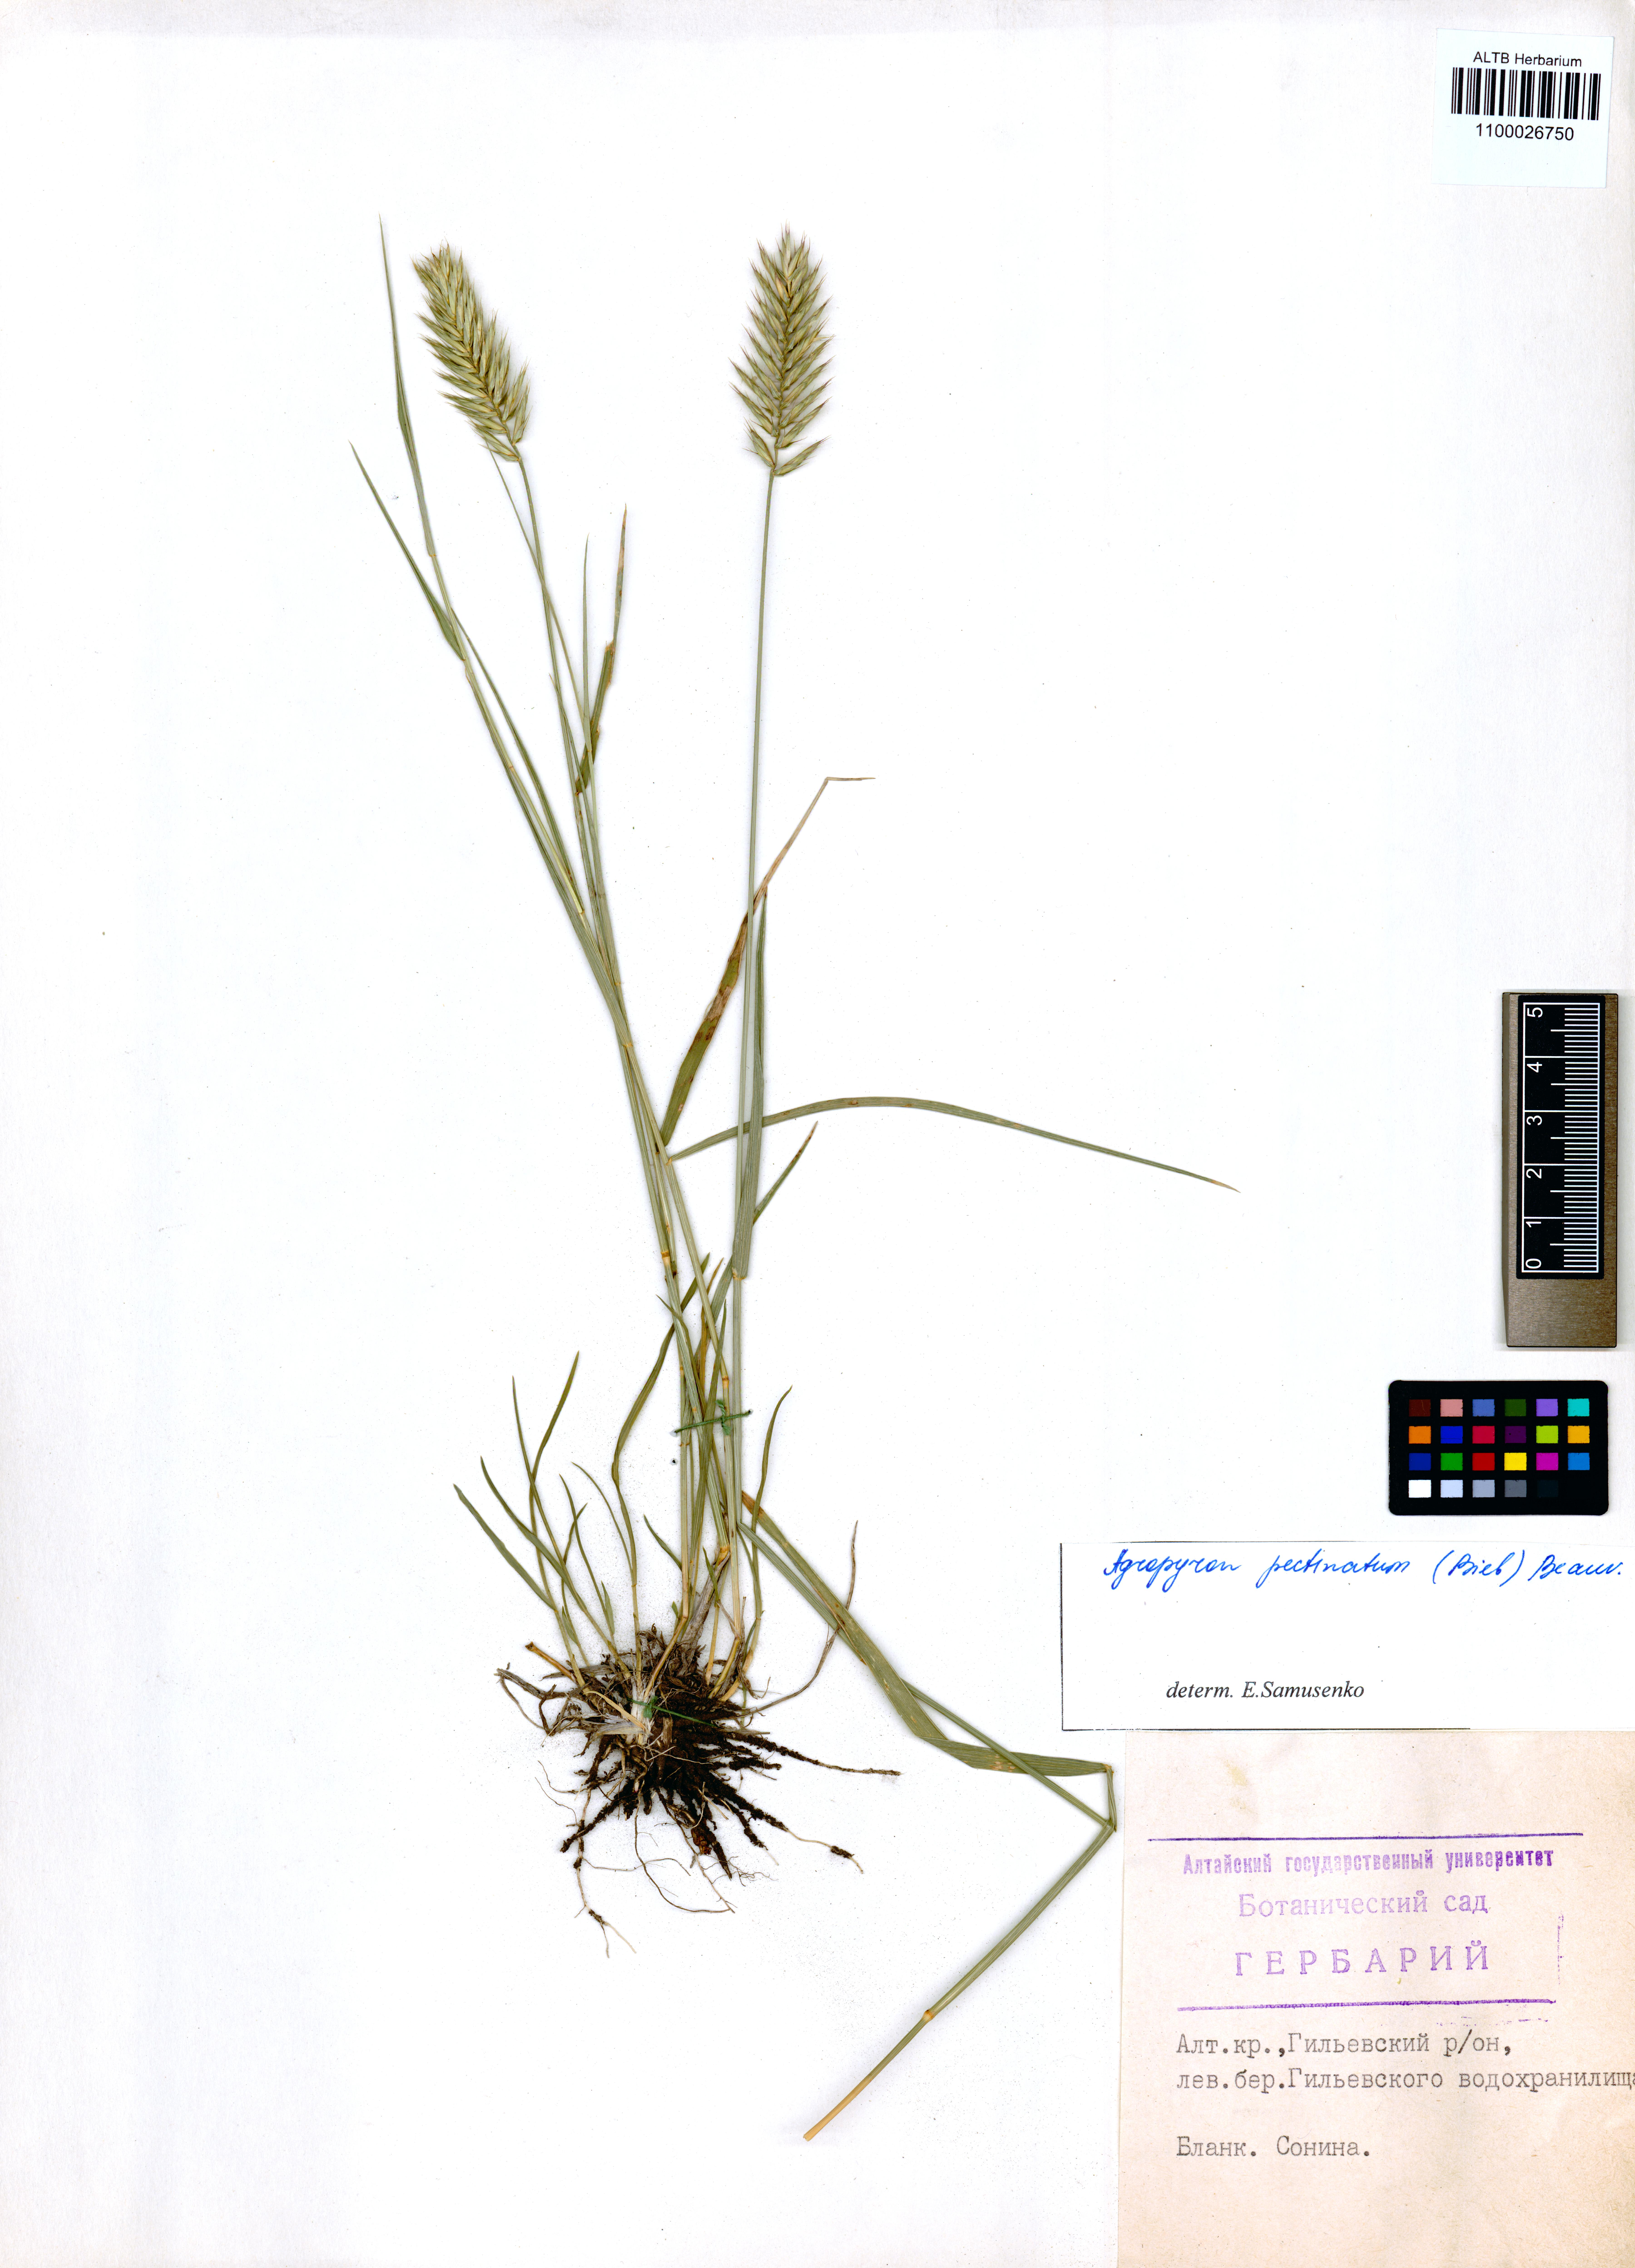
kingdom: Plantae
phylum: Tracheophyta
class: Liliopsida
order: Poales
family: Poaceae
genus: Agropyron
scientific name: Agropyron cristatum
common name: Crested wheatgrass
